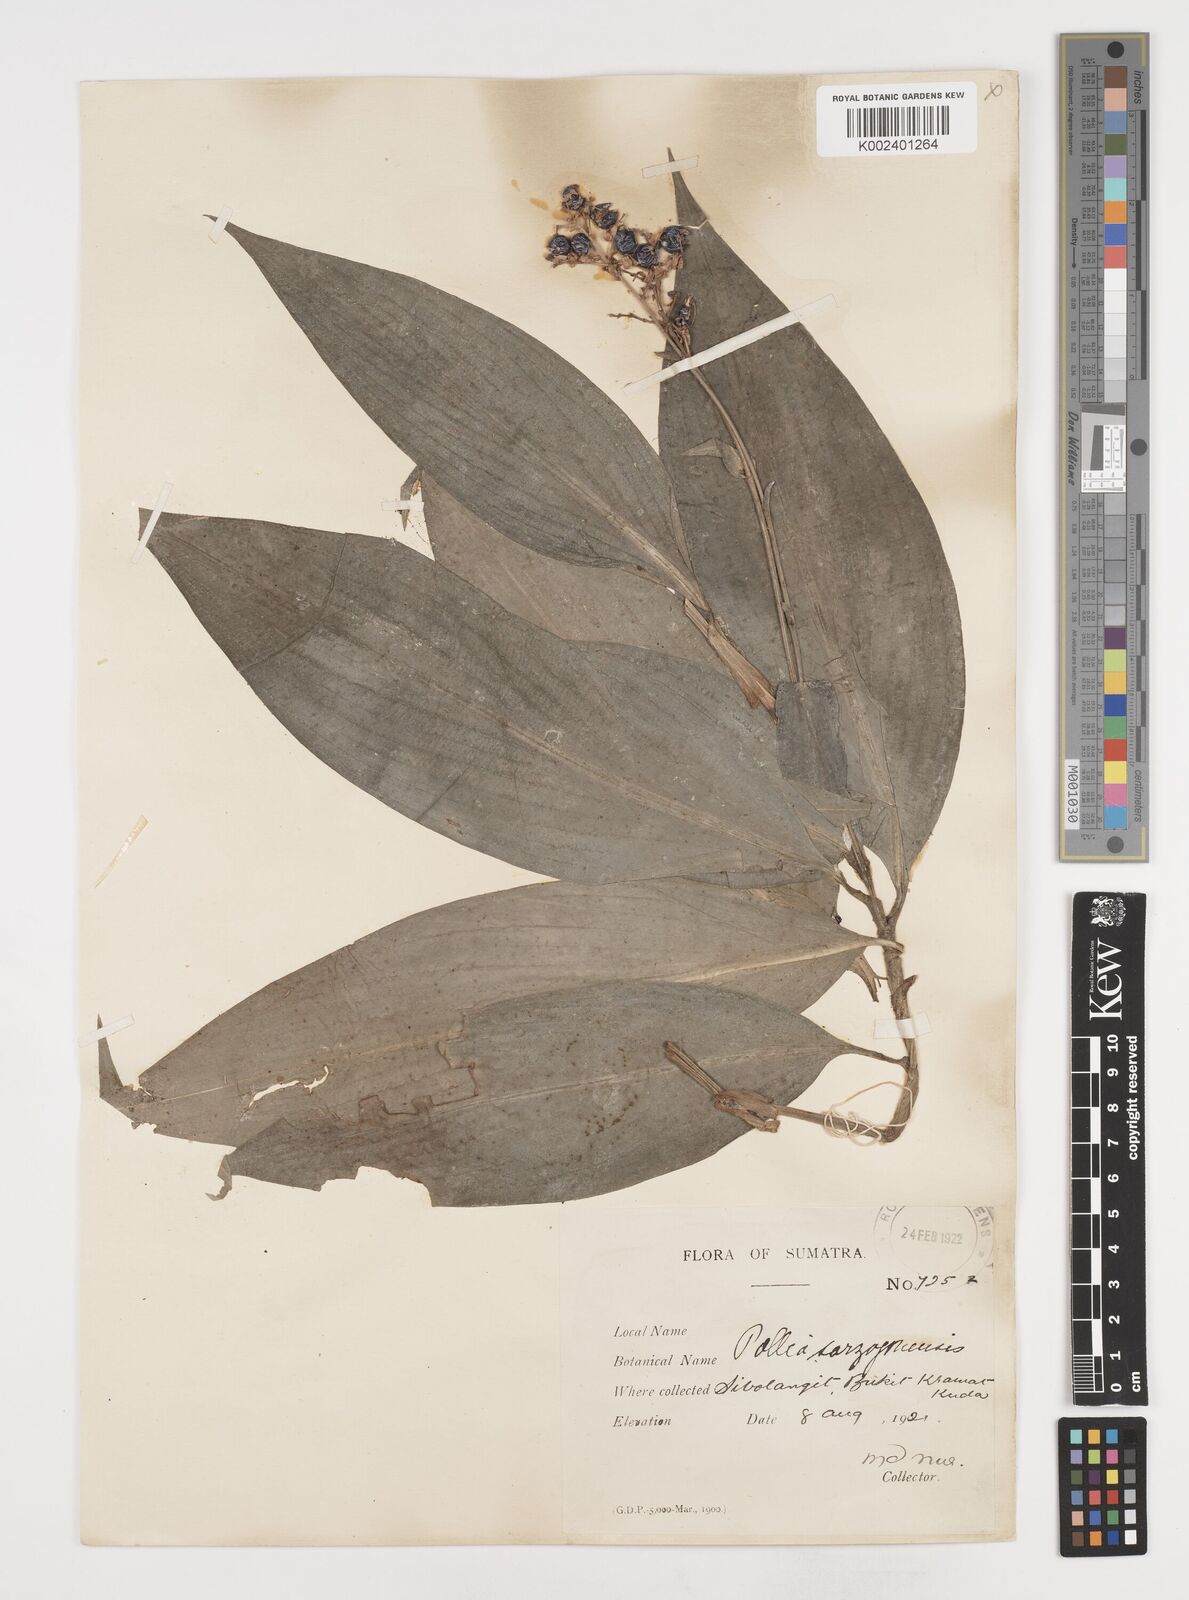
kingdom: Plantae
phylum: Tracheophyta
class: Liliopsida
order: Commelinales
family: Commelinaceae
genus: Pollia
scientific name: Pollia secundiflora
